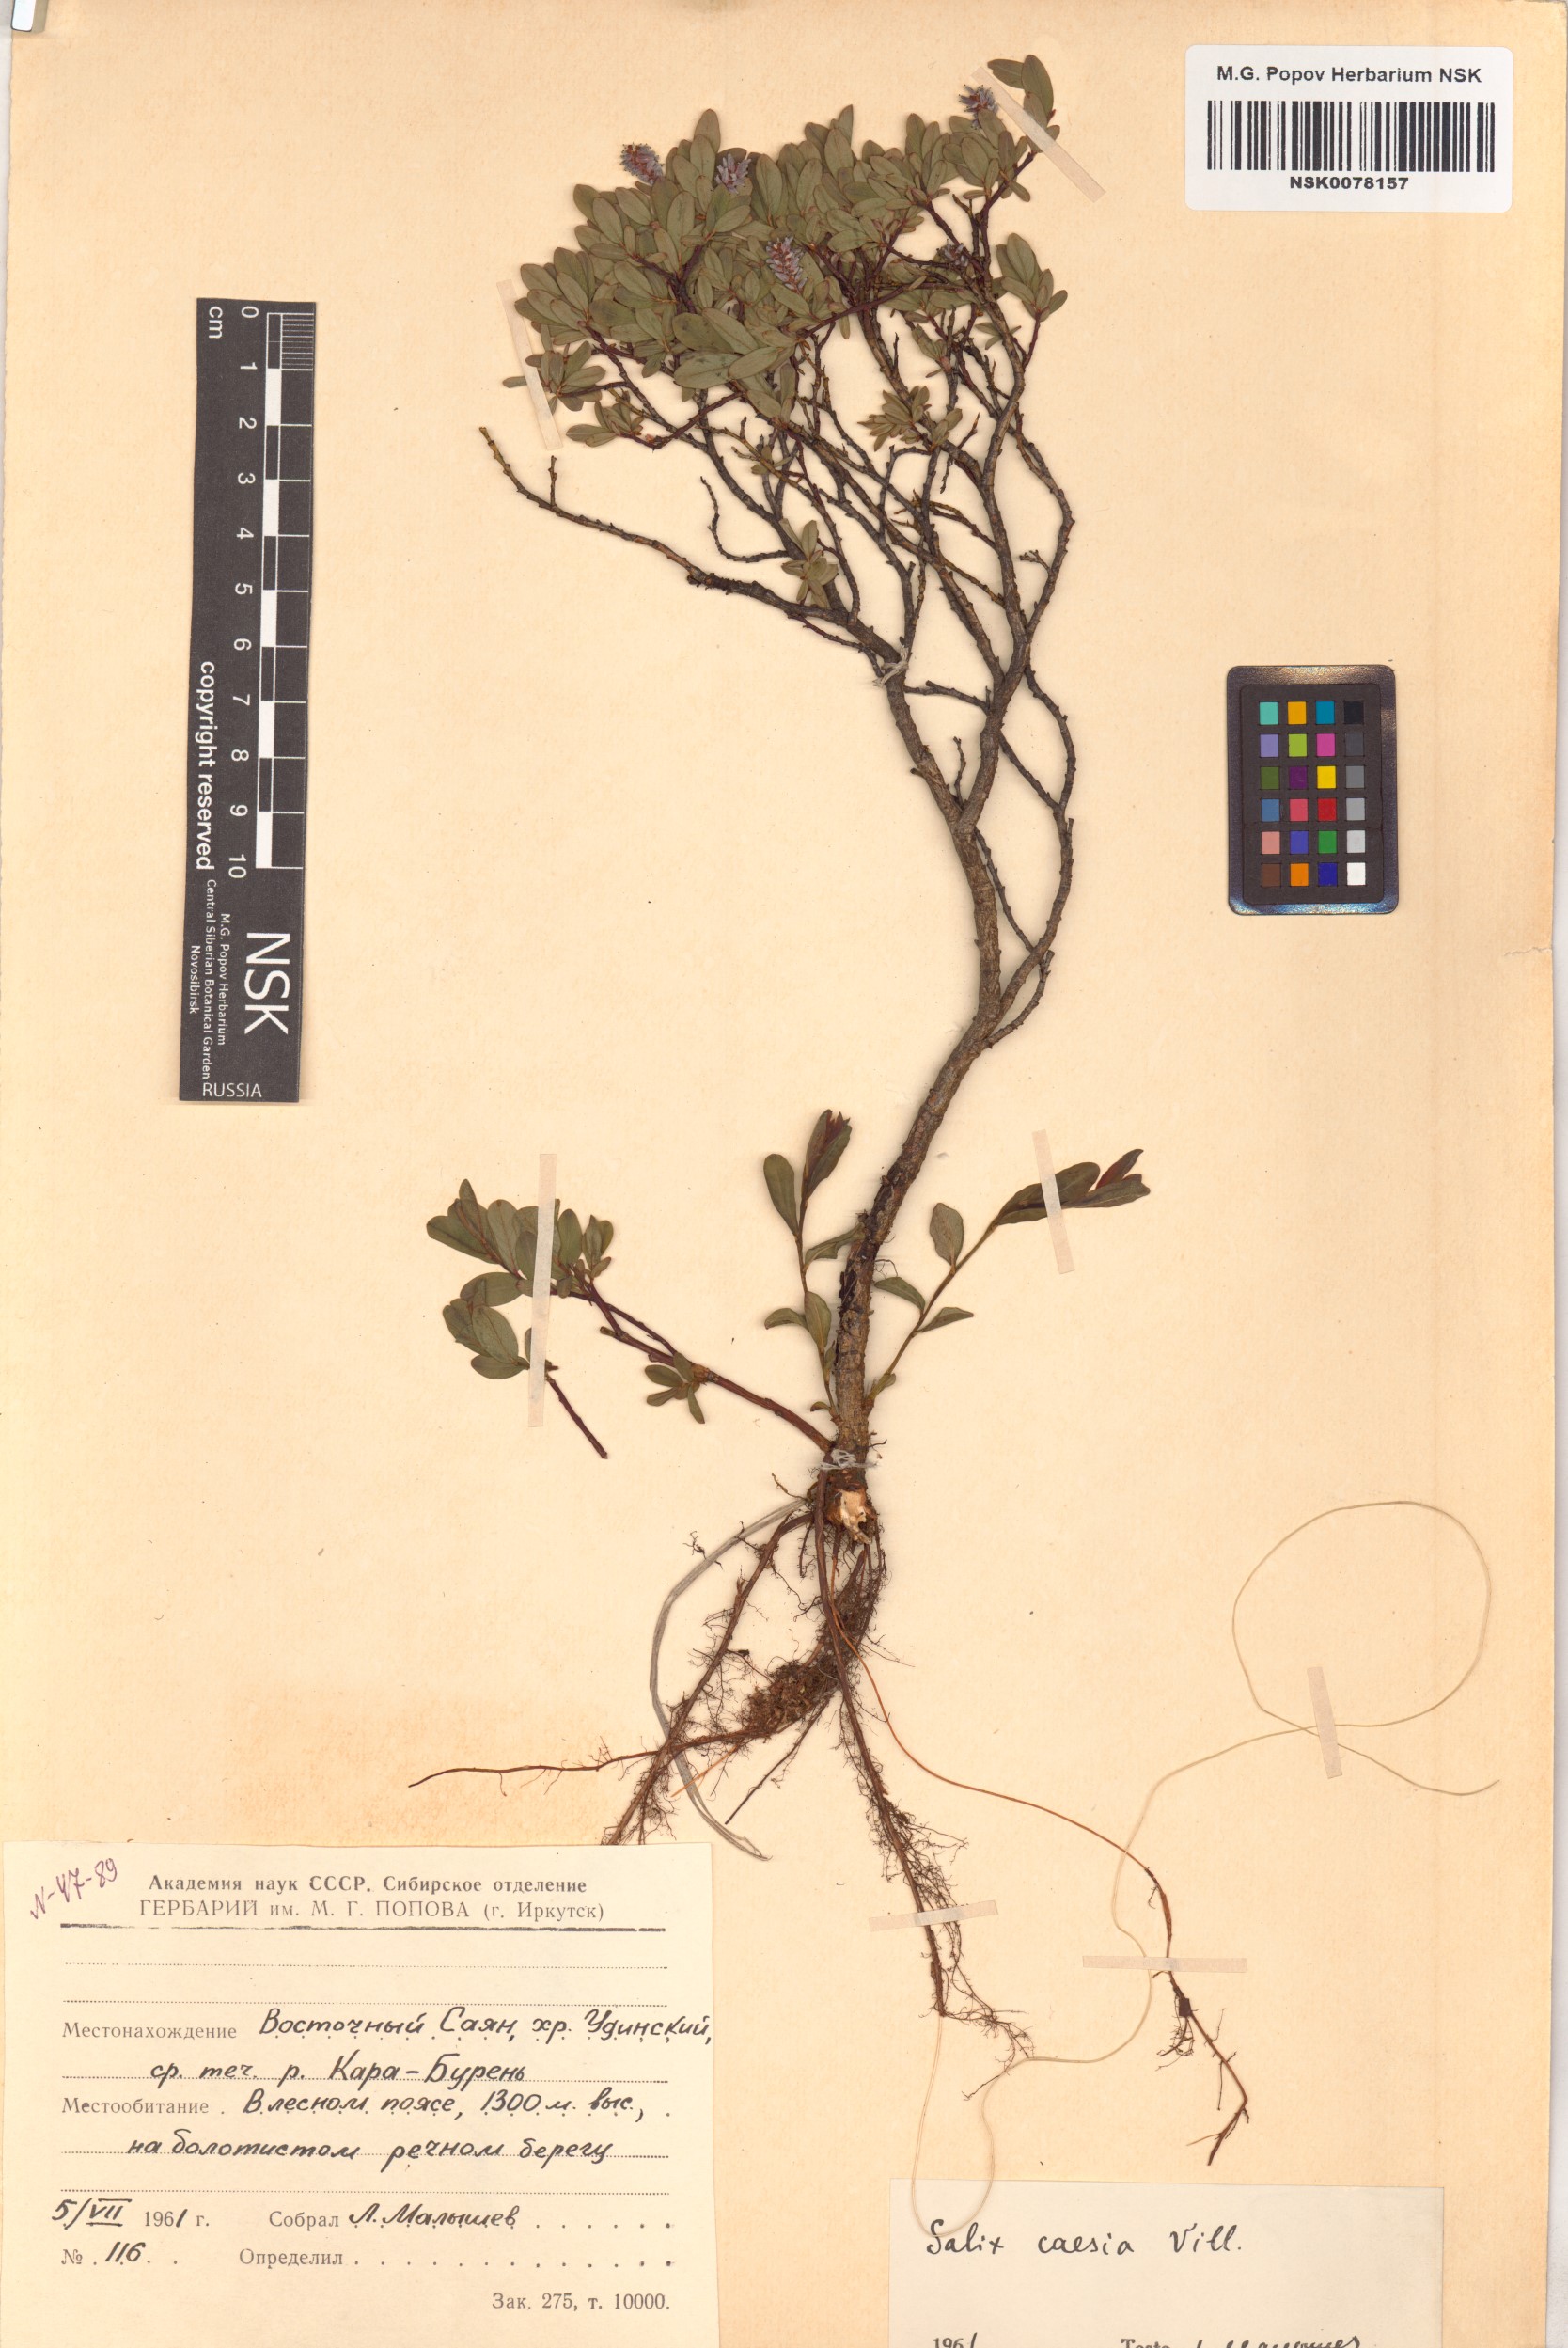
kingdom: Plantae
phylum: Tracheophyta
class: Magnoliopsida
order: Malpighiales
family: Salicaceae
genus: Salix
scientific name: Salix caesia
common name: Blue willow
